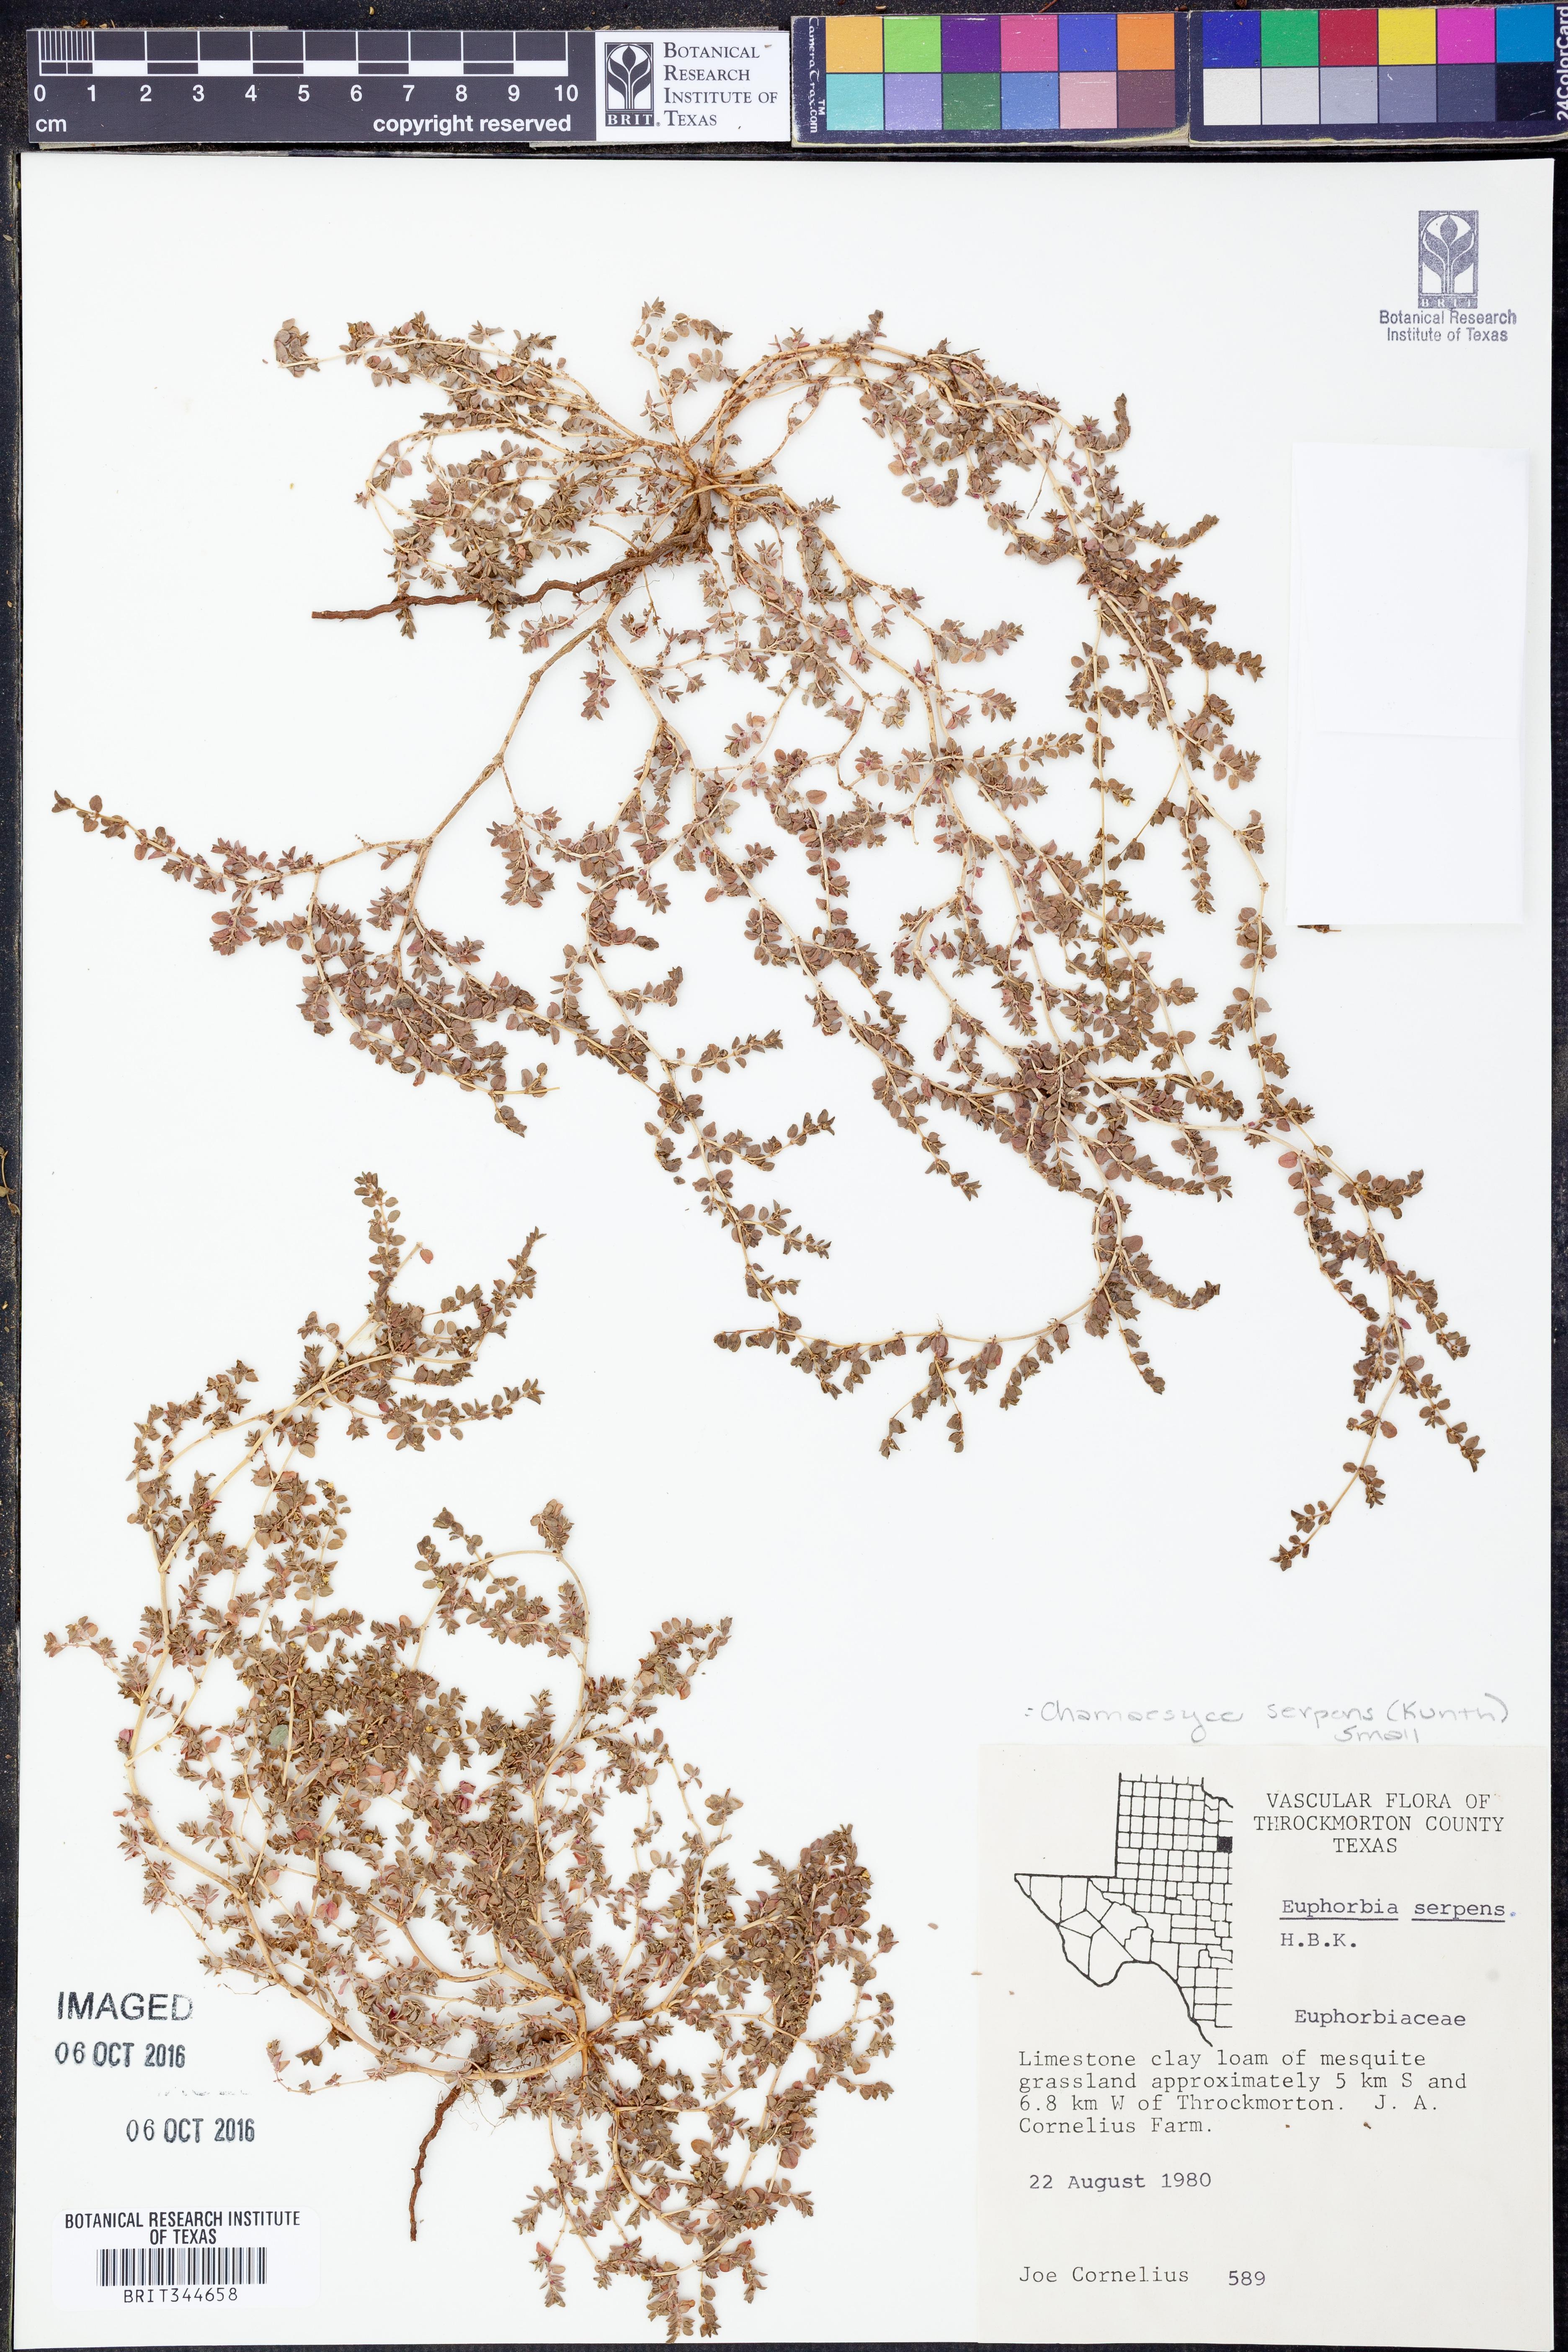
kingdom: Plantae
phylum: Tracheophyta
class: Magnoliopsida
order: Malpighiales
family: Euphorbiaceae
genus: Euphorbia
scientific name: Euphorbia serpens
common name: Matted sandmat
